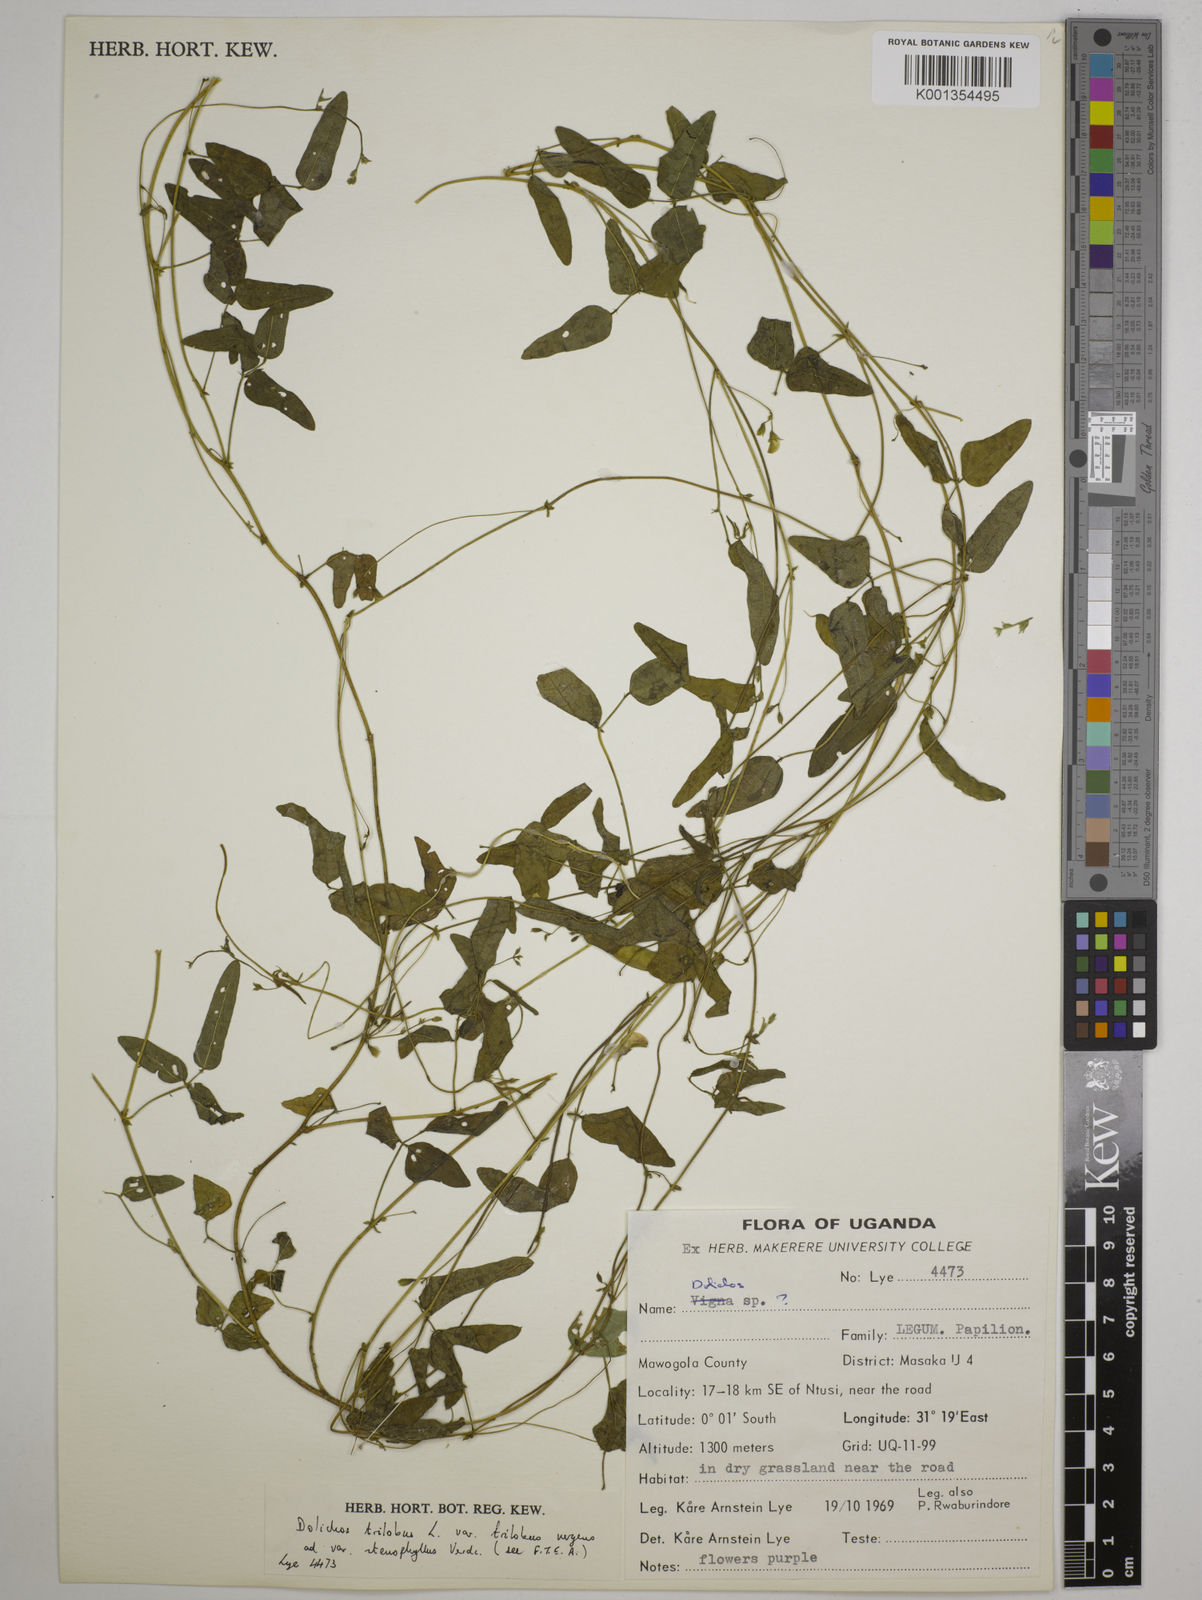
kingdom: Plantae
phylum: Tracheophyta
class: Magnoliopsida
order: Fabales
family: Fabaceae
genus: Dolichos
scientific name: Dolichos
